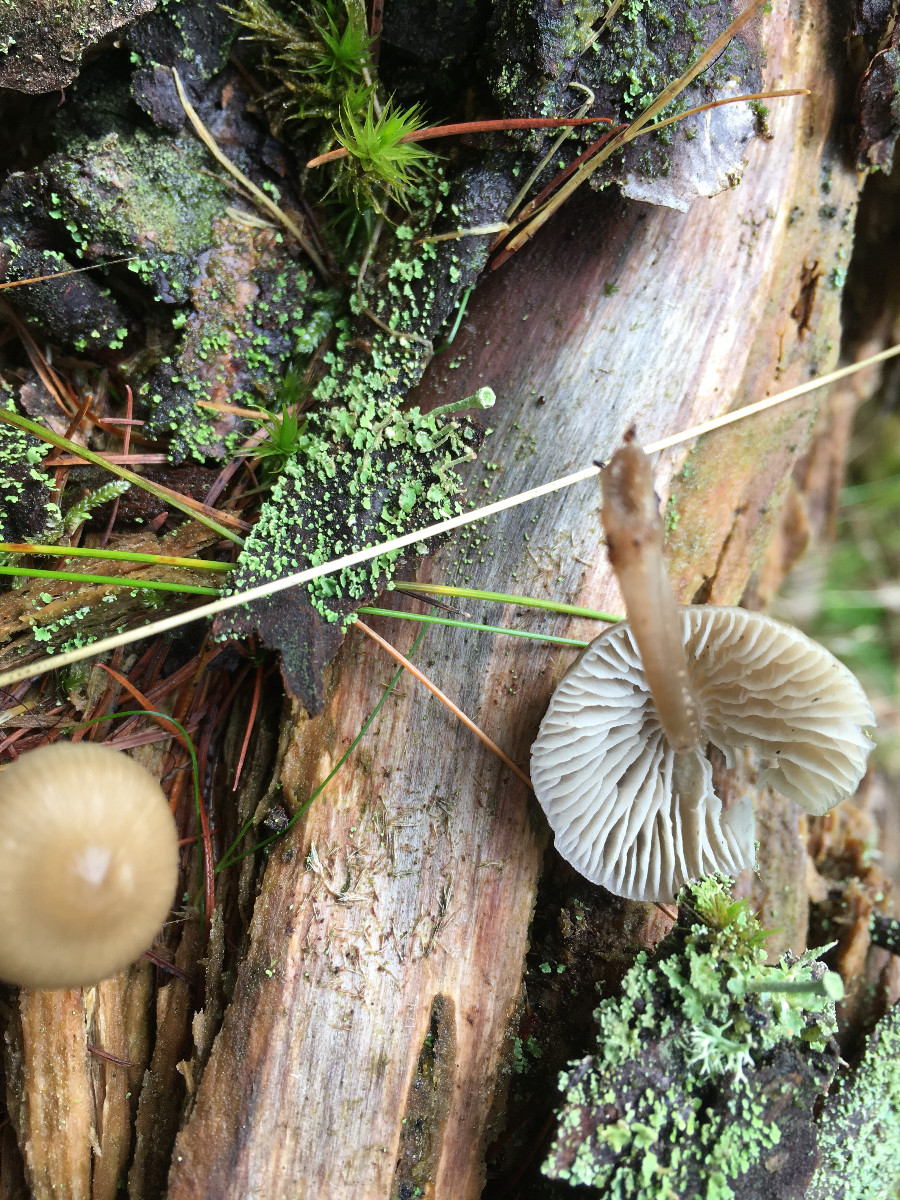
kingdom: Fungi
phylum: Basidiomycota
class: Agaricomycetes
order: Agaricales
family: Mycenaceae
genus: Mycena
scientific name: Mycena galericulata
